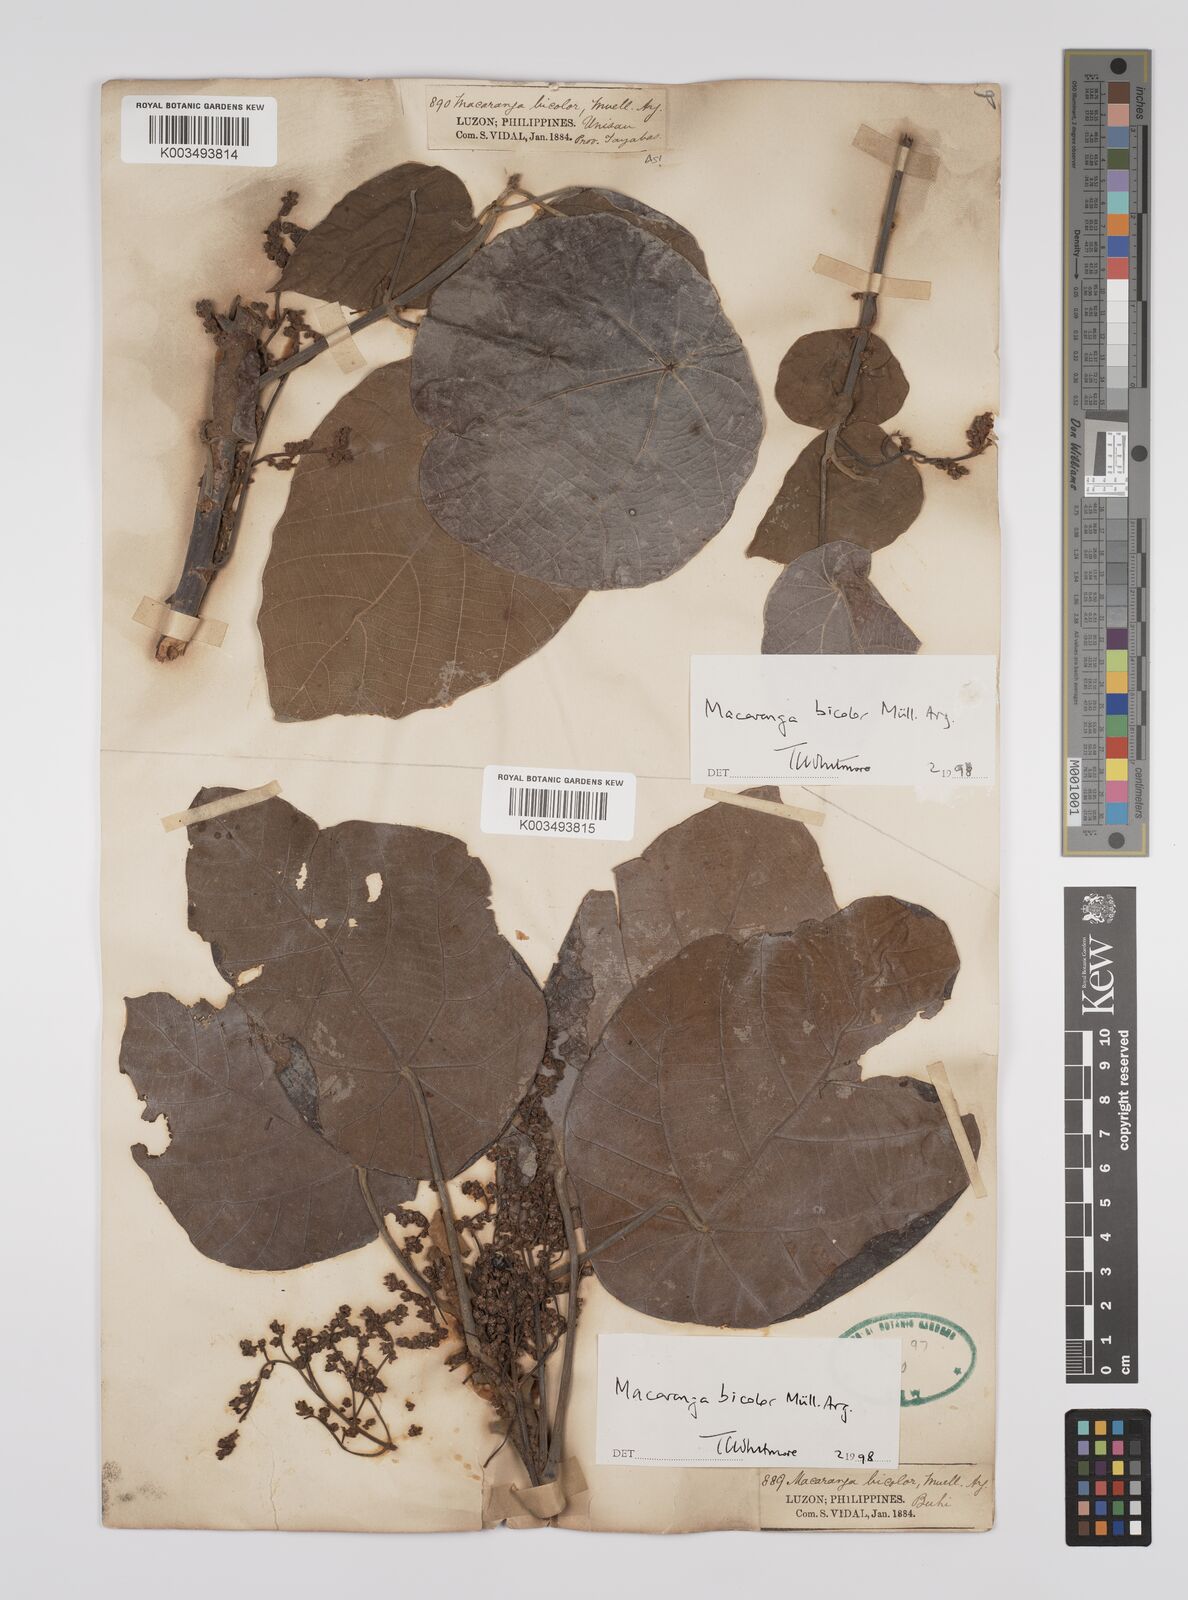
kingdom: Plantae
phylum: Tracheophyta
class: Magnoliopsida
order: Malpighiales
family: Euphorbiaceae
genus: Macaranga
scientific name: Macaranga bicolor
